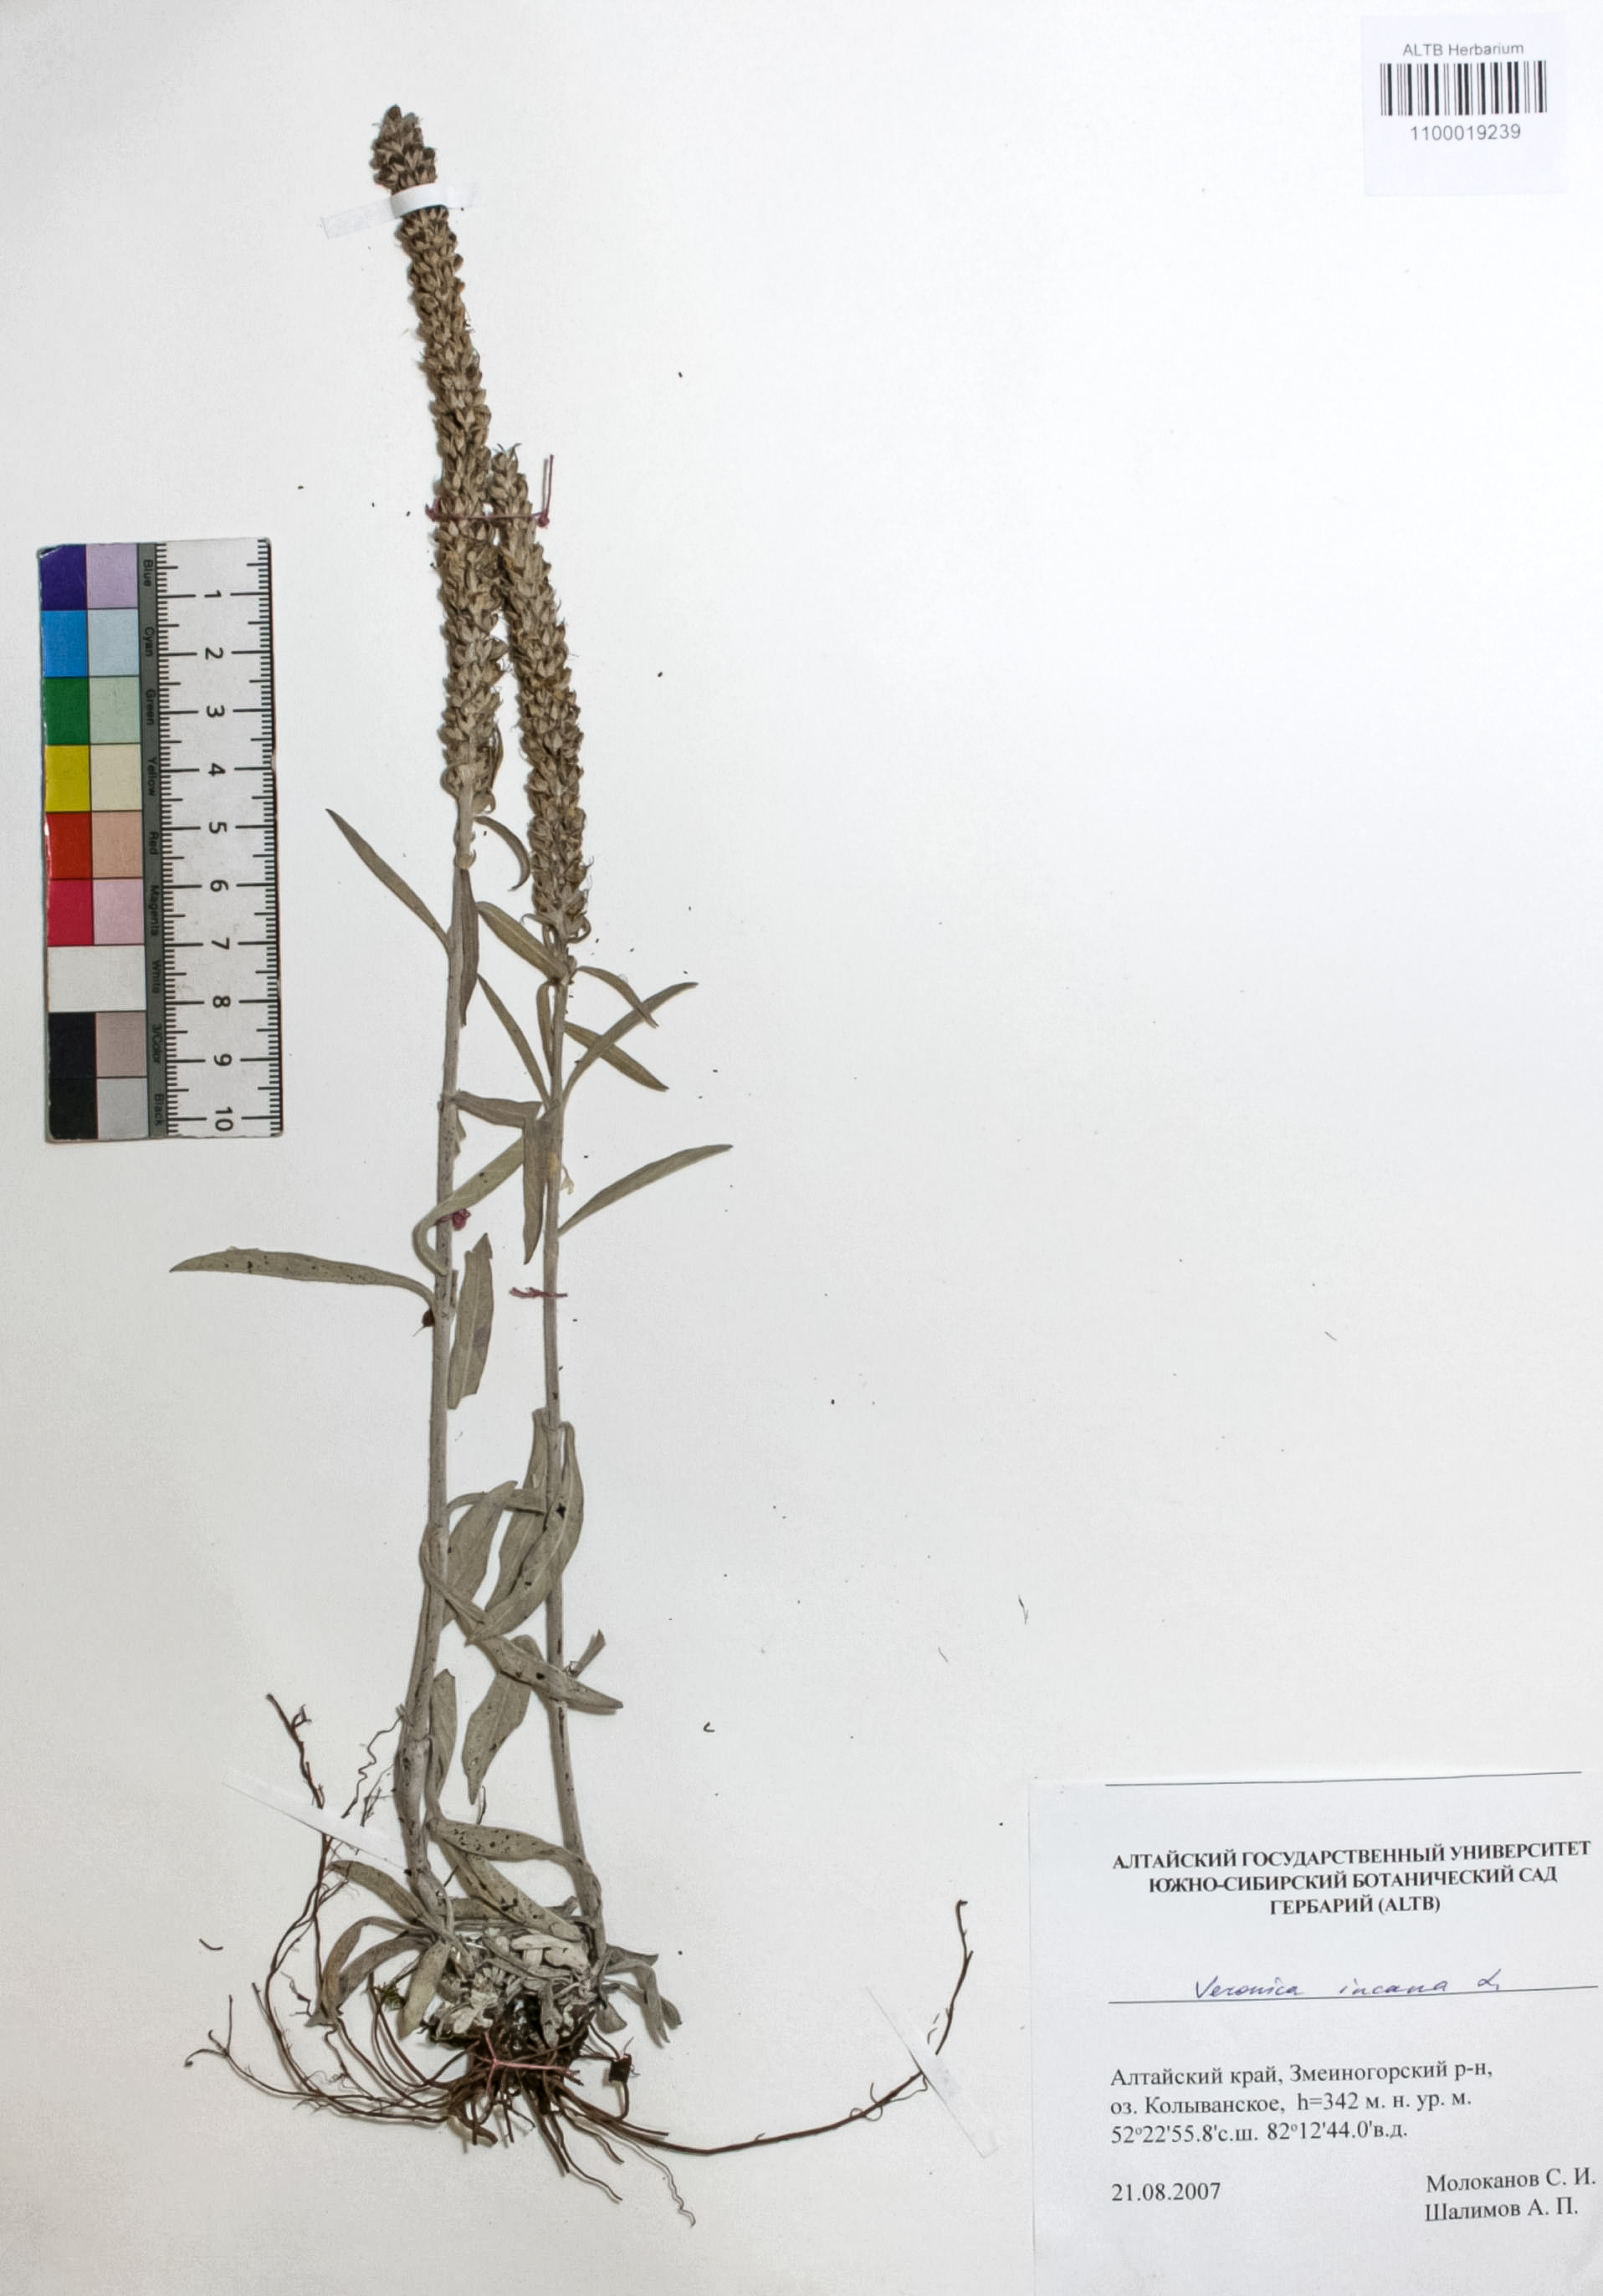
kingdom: Plantae
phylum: Tracheophyta
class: Magnoliopsida
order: Lamiales
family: Plantaginaceae
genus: Veronica
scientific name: Veronica incana
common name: Silver speedwell
